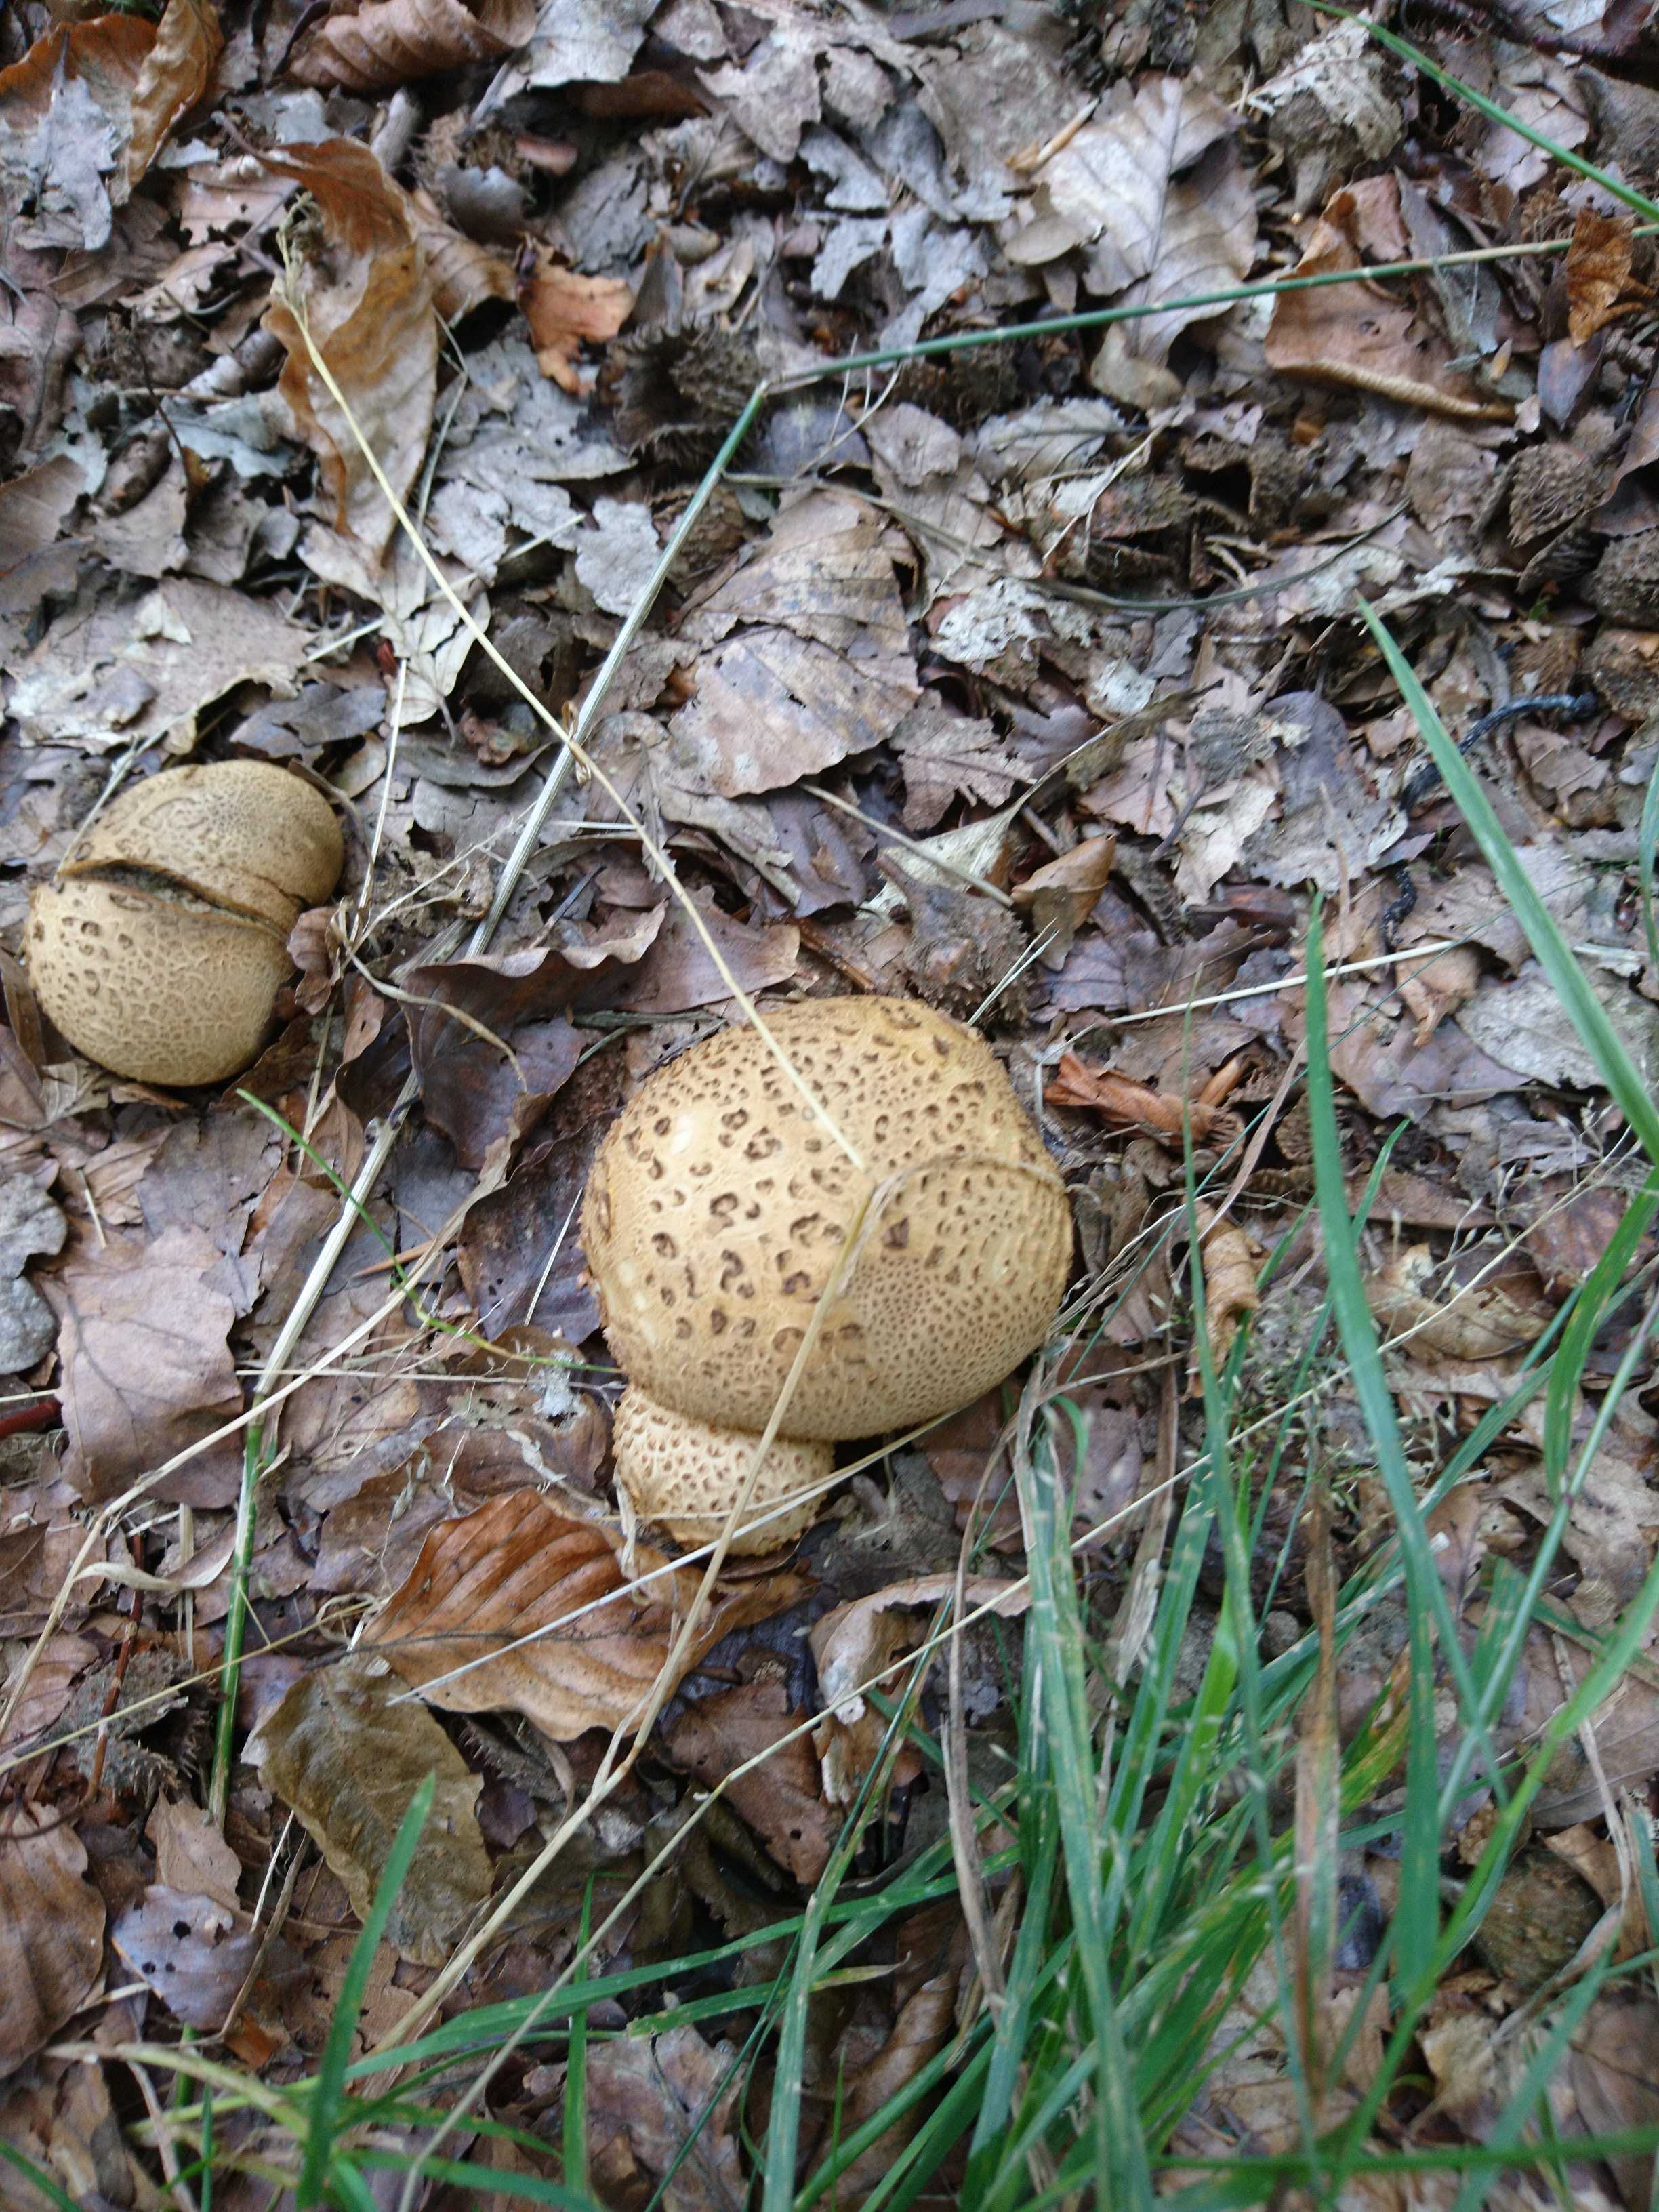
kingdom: Fungi
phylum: Basidiomycota
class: Agaricomycetes
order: Boletales
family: Sclerodermataceae
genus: Scleroderma
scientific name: Scleroderma citrinum
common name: almindelig bruskbold
